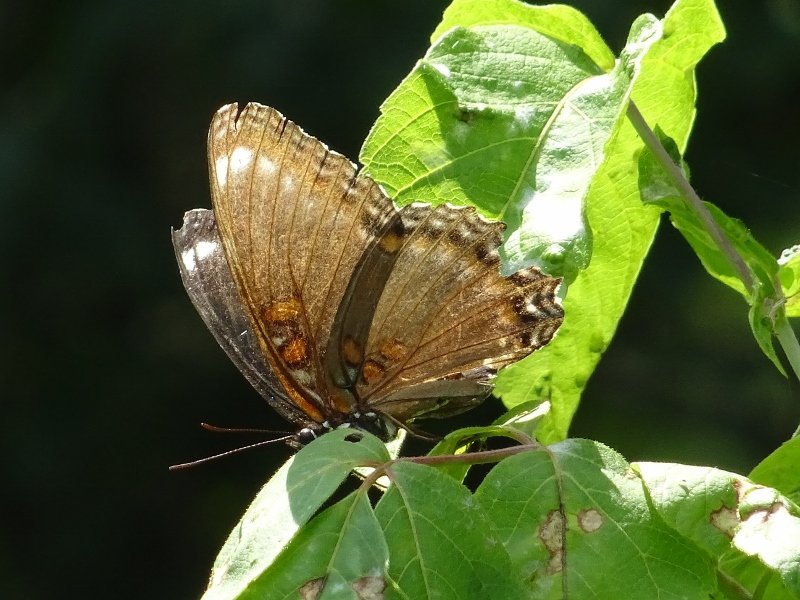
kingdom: Animalia
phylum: Arthropoda
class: Insecta
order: Lepidoptera
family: Nymphalidae
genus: Limenitis
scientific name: Limenitis astyanax
